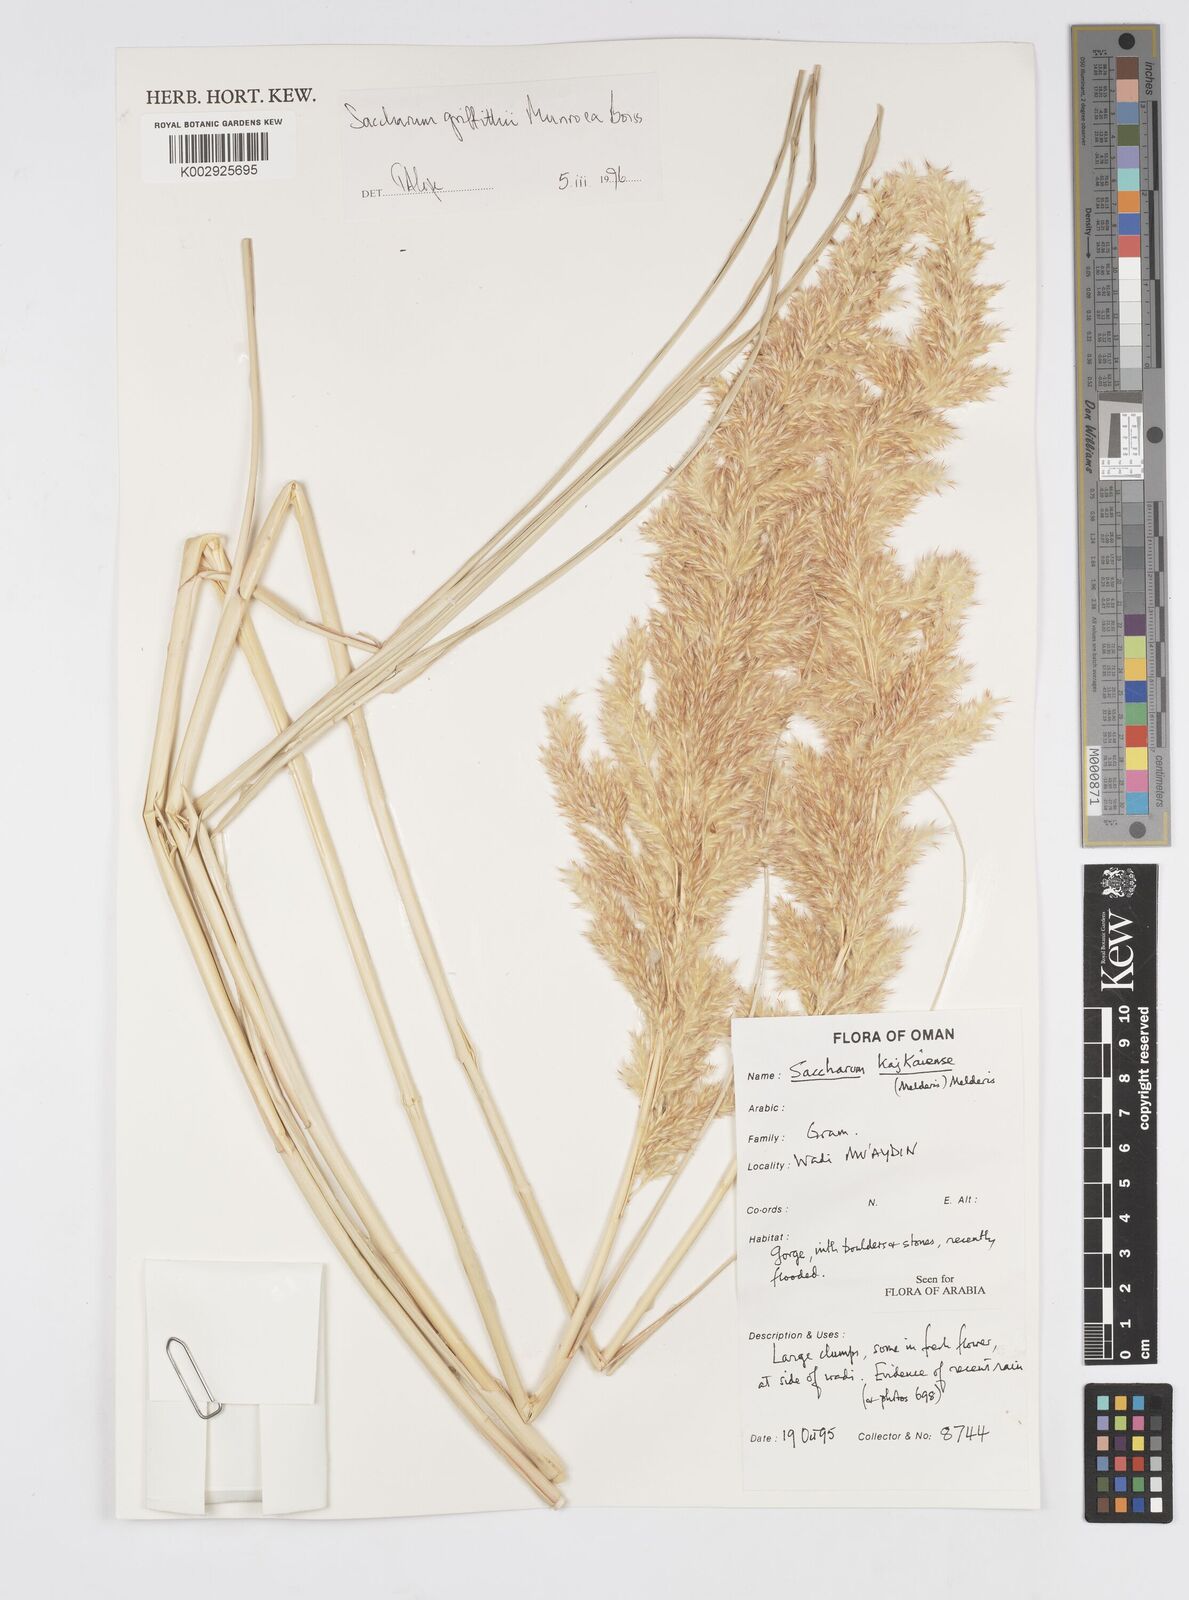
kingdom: Plantae
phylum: Tracheophyta
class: Liliopsida
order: Poales
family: Poaceae
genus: Saccharum
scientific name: Saccharum griffithii
